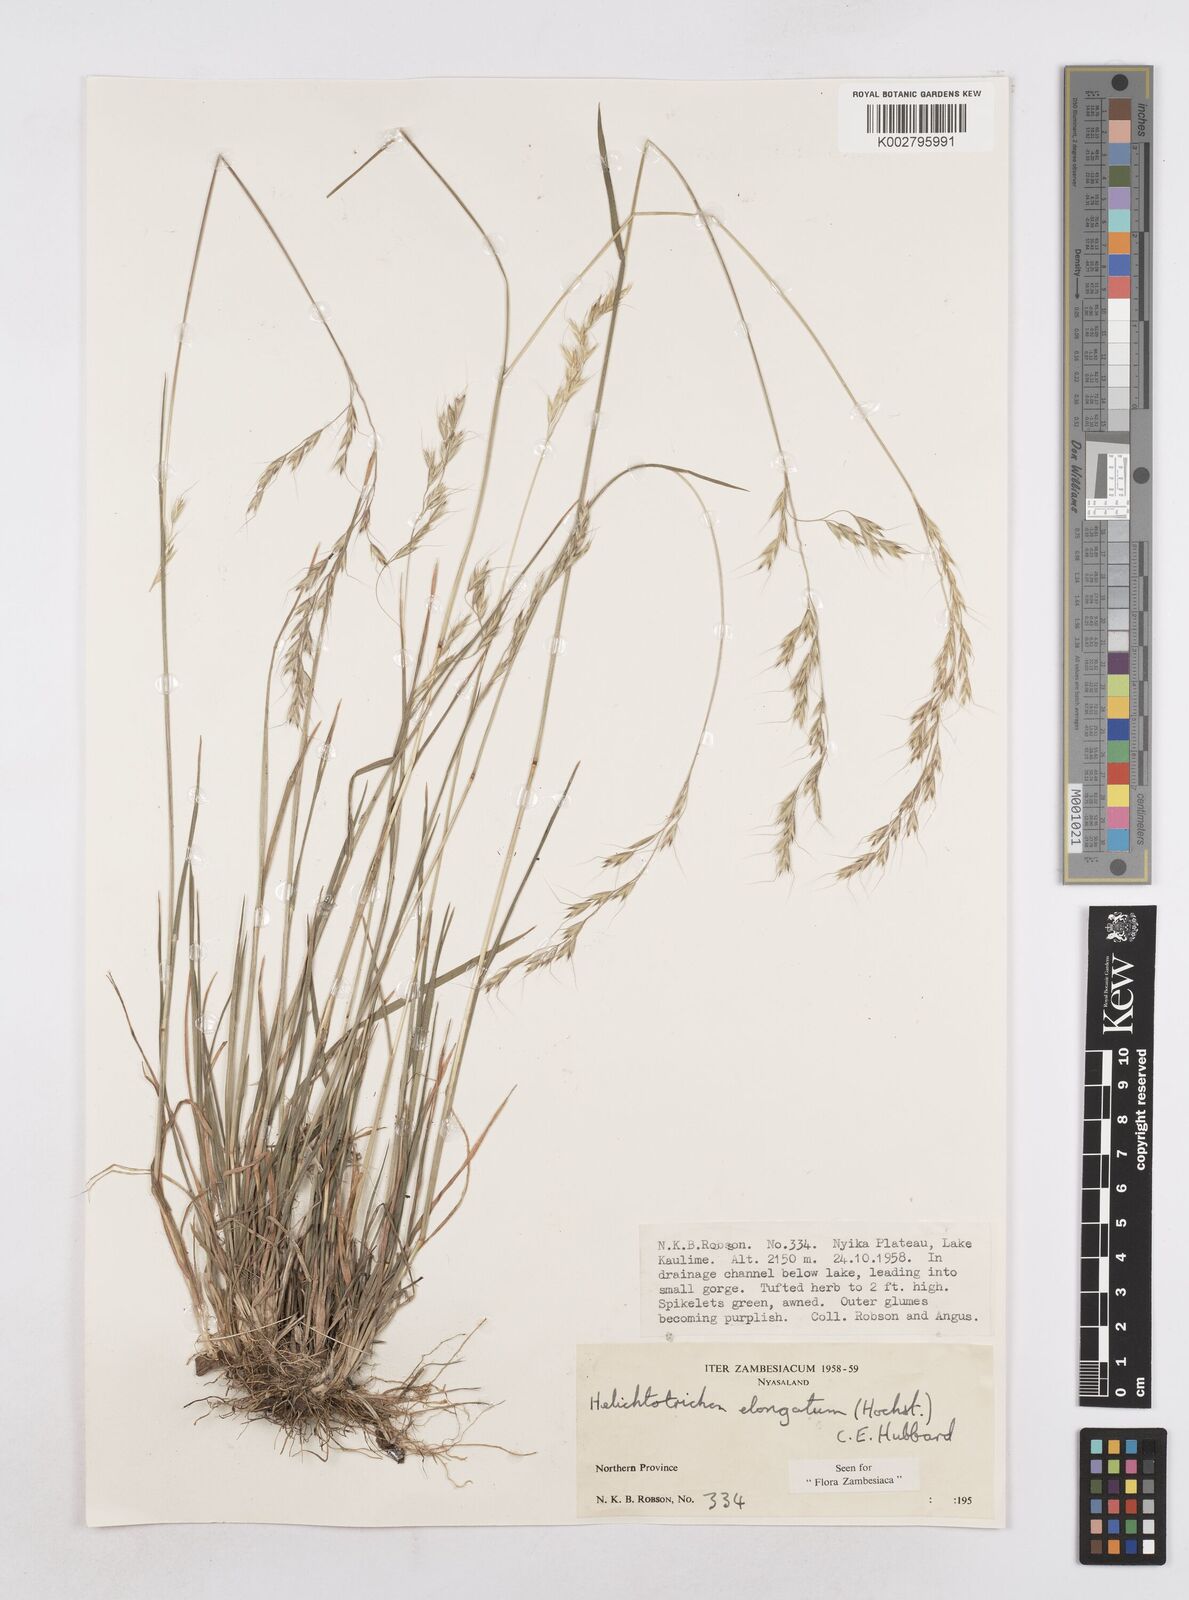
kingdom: Plantae
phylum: Tracheophyta
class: Liliopsida
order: Poales
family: Poaceae
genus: Trisetopsis
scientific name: Trisetopsis elongata
